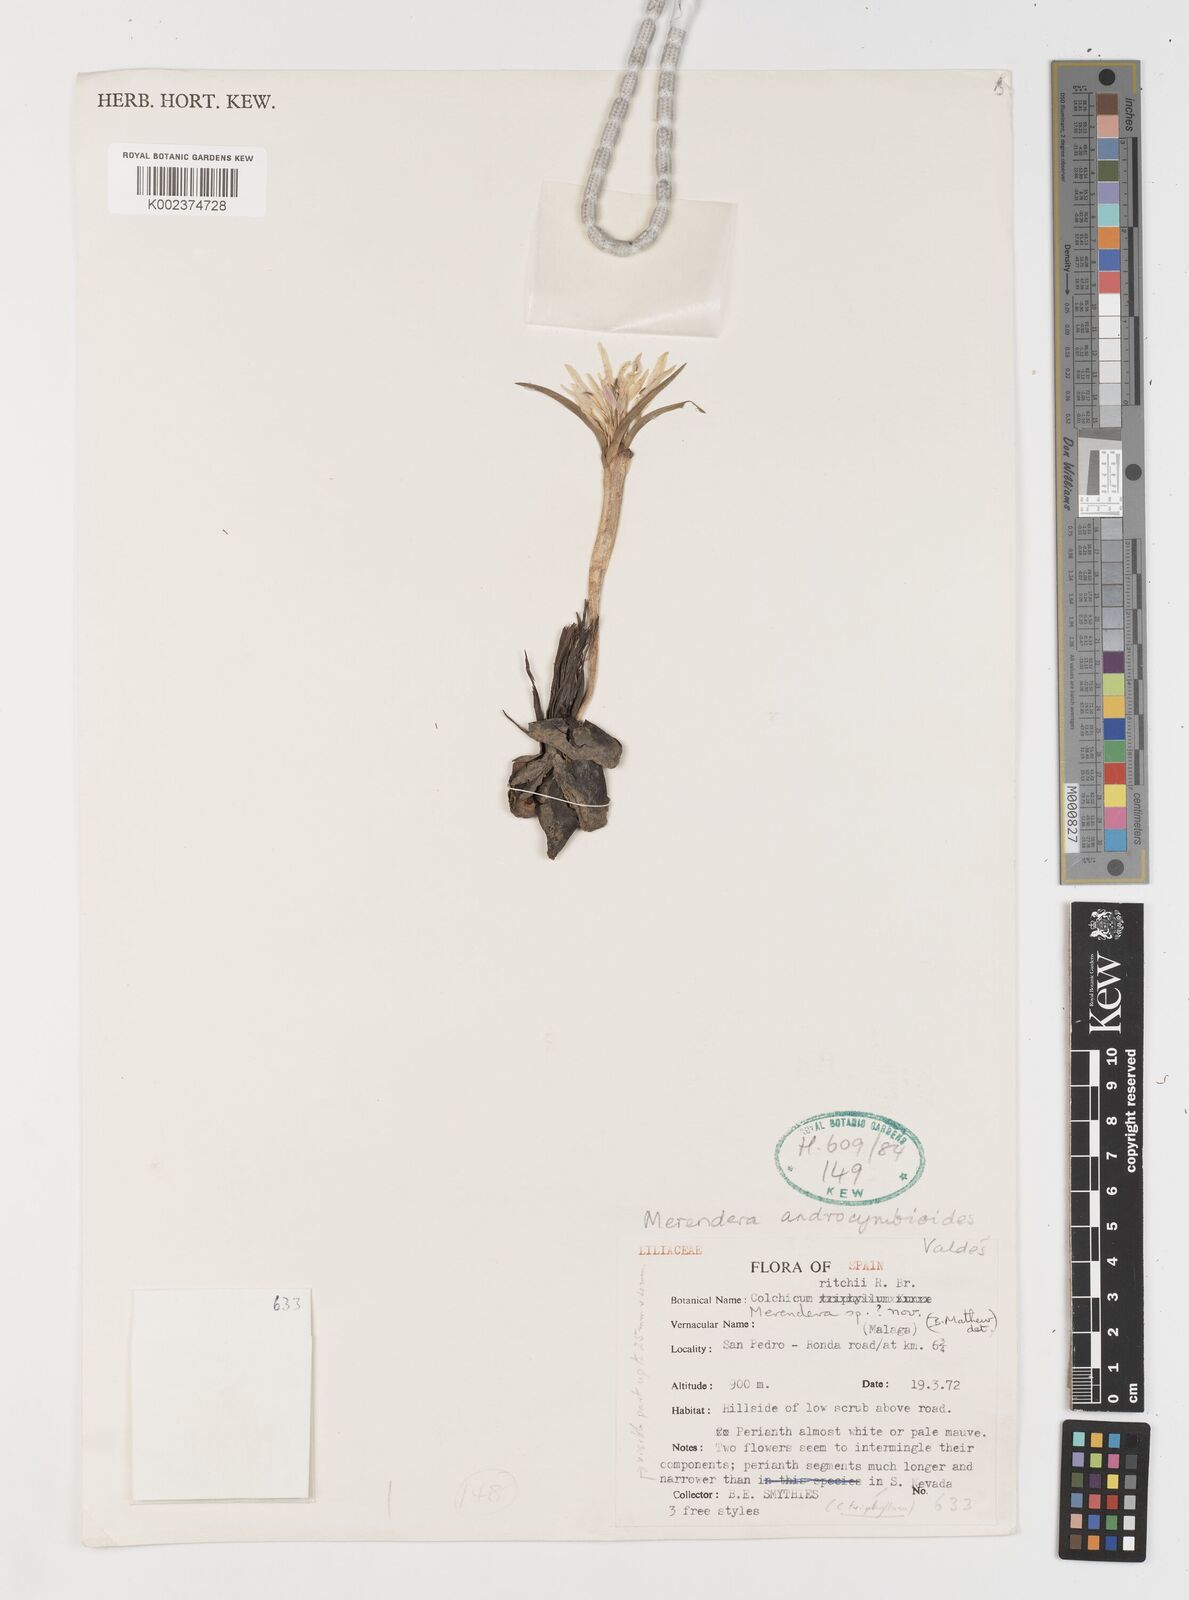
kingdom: Plantae
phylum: Tracheophyta
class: Liliopsida
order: Liliales
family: Colchicaceae
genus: Colchicum
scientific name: Colchicum androcymbioides
